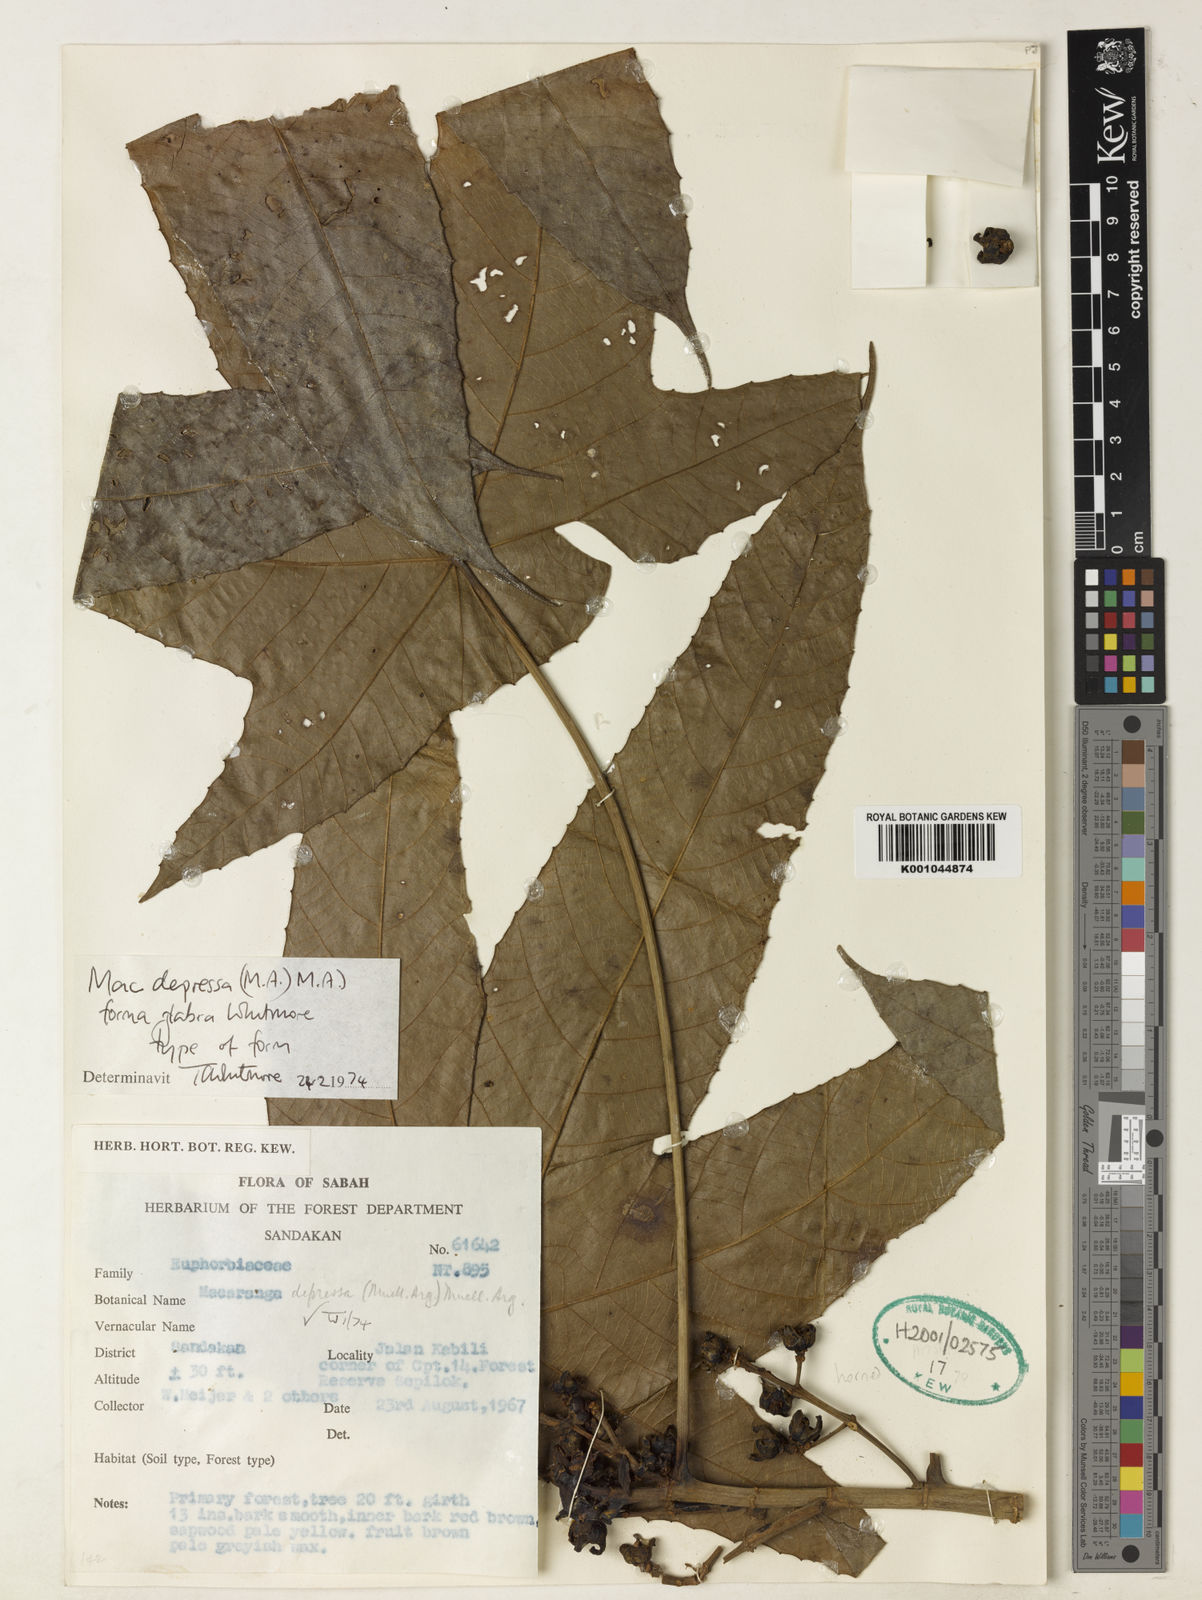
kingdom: Plantae
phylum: Tracheophyta
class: Magnoliopsida
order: Malpighiales
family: Euphorbiaceae
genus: Macaranga
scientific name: Macaranga
